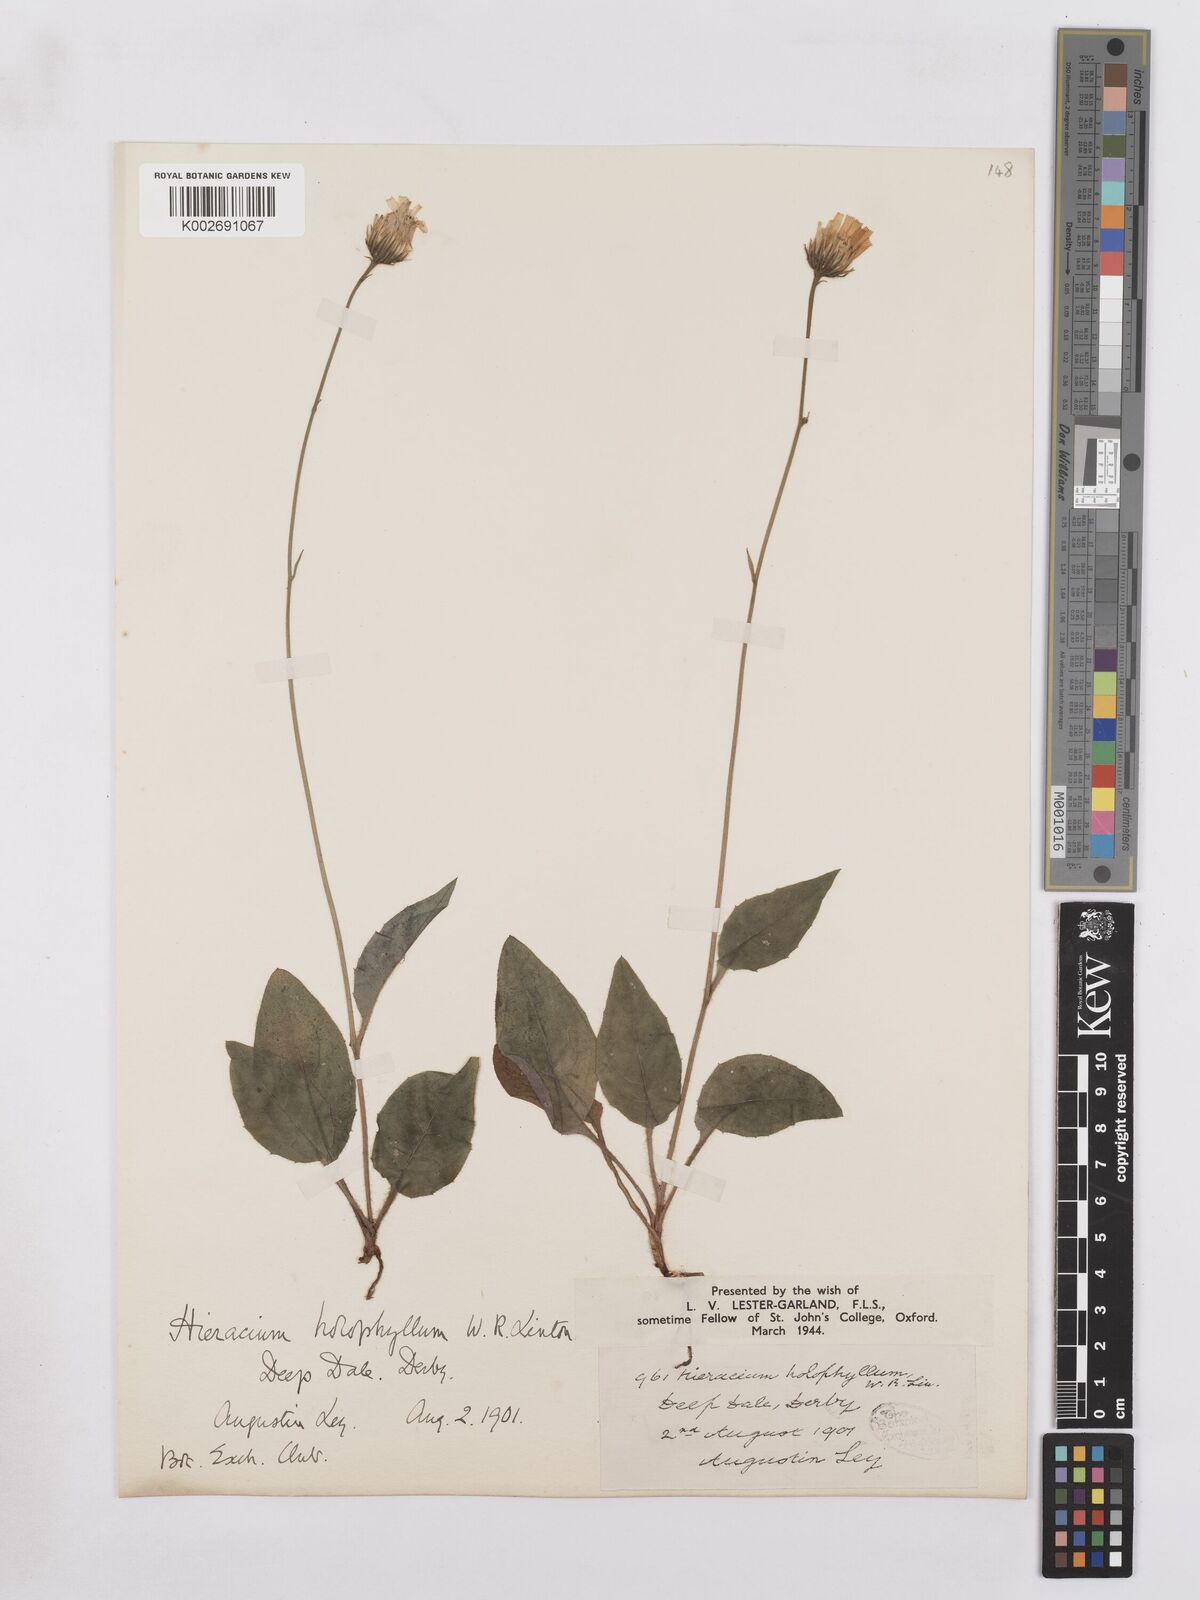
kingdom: Plantae
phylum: Tracheophyta
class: Magnoliopsida
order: Asterales
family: Asteraceae
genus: Hieracium
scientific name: Hieracium holophyllum
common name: Undivided-leaved hawkweed
